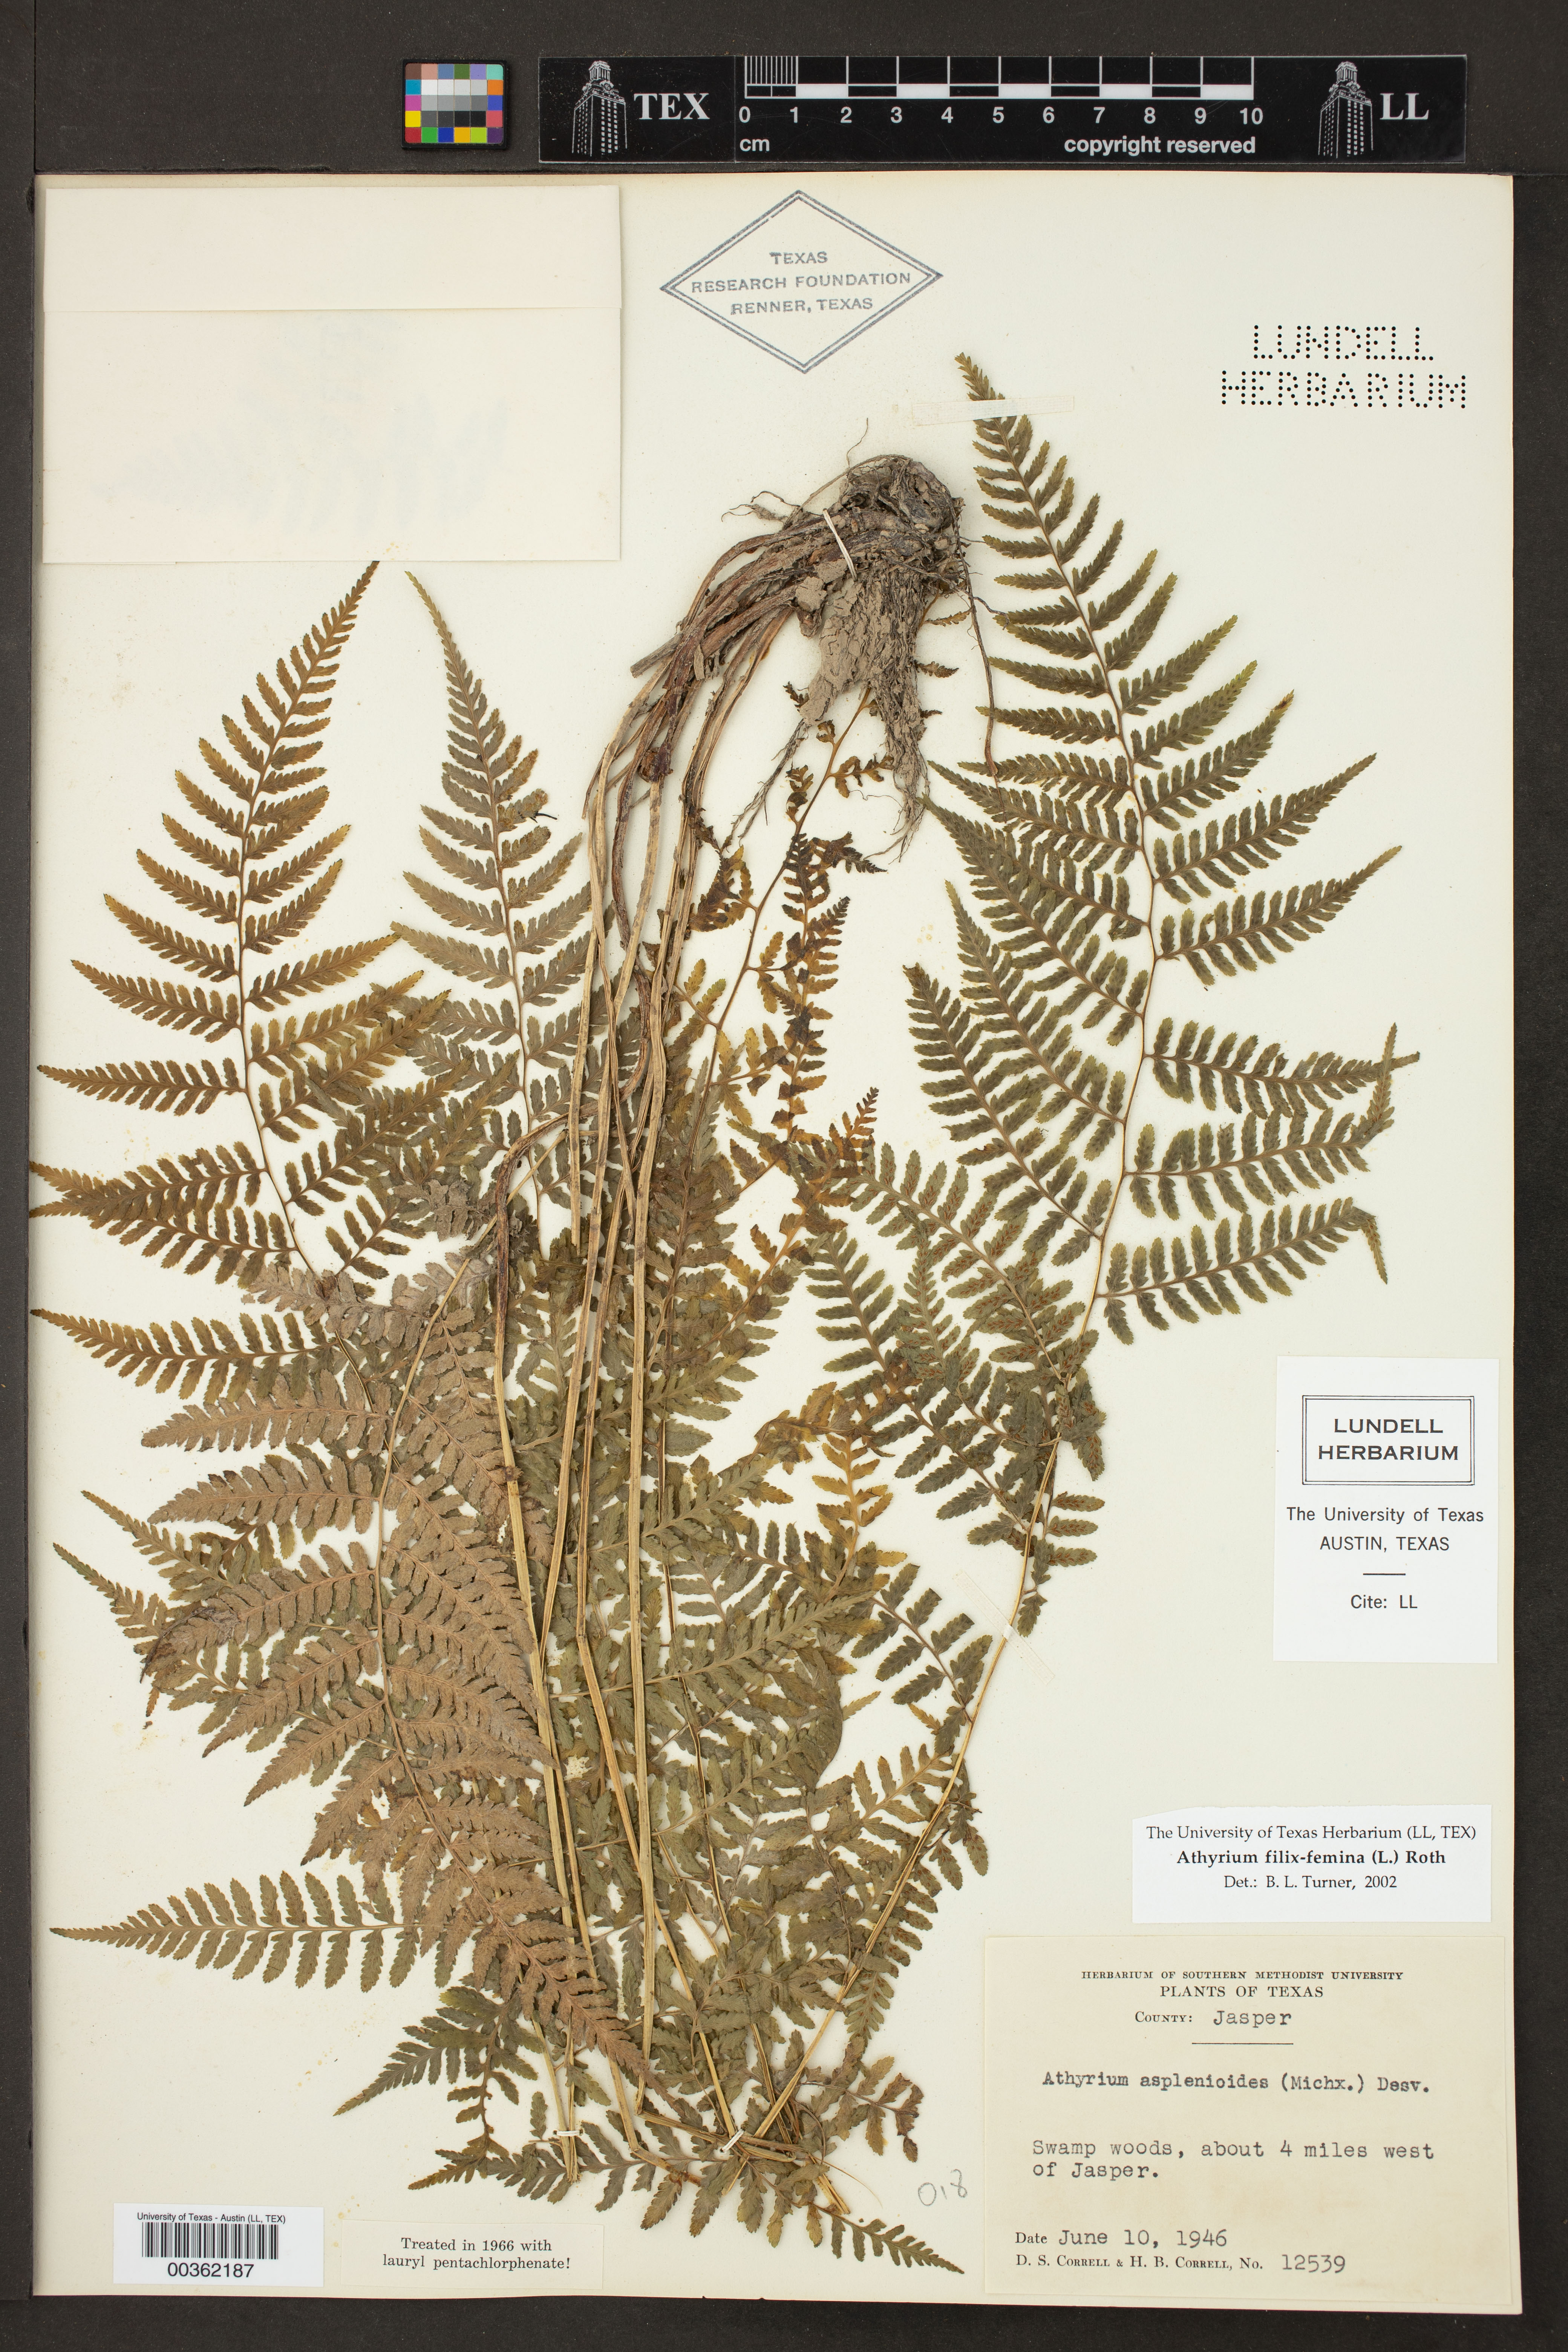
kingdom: Plantae
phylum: Tracheophyta
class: Polypodiopsida
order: Polypodiales
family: Athyriaceae
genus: Athyrium
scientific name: Athyrium filix-femina
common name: Lady fern
